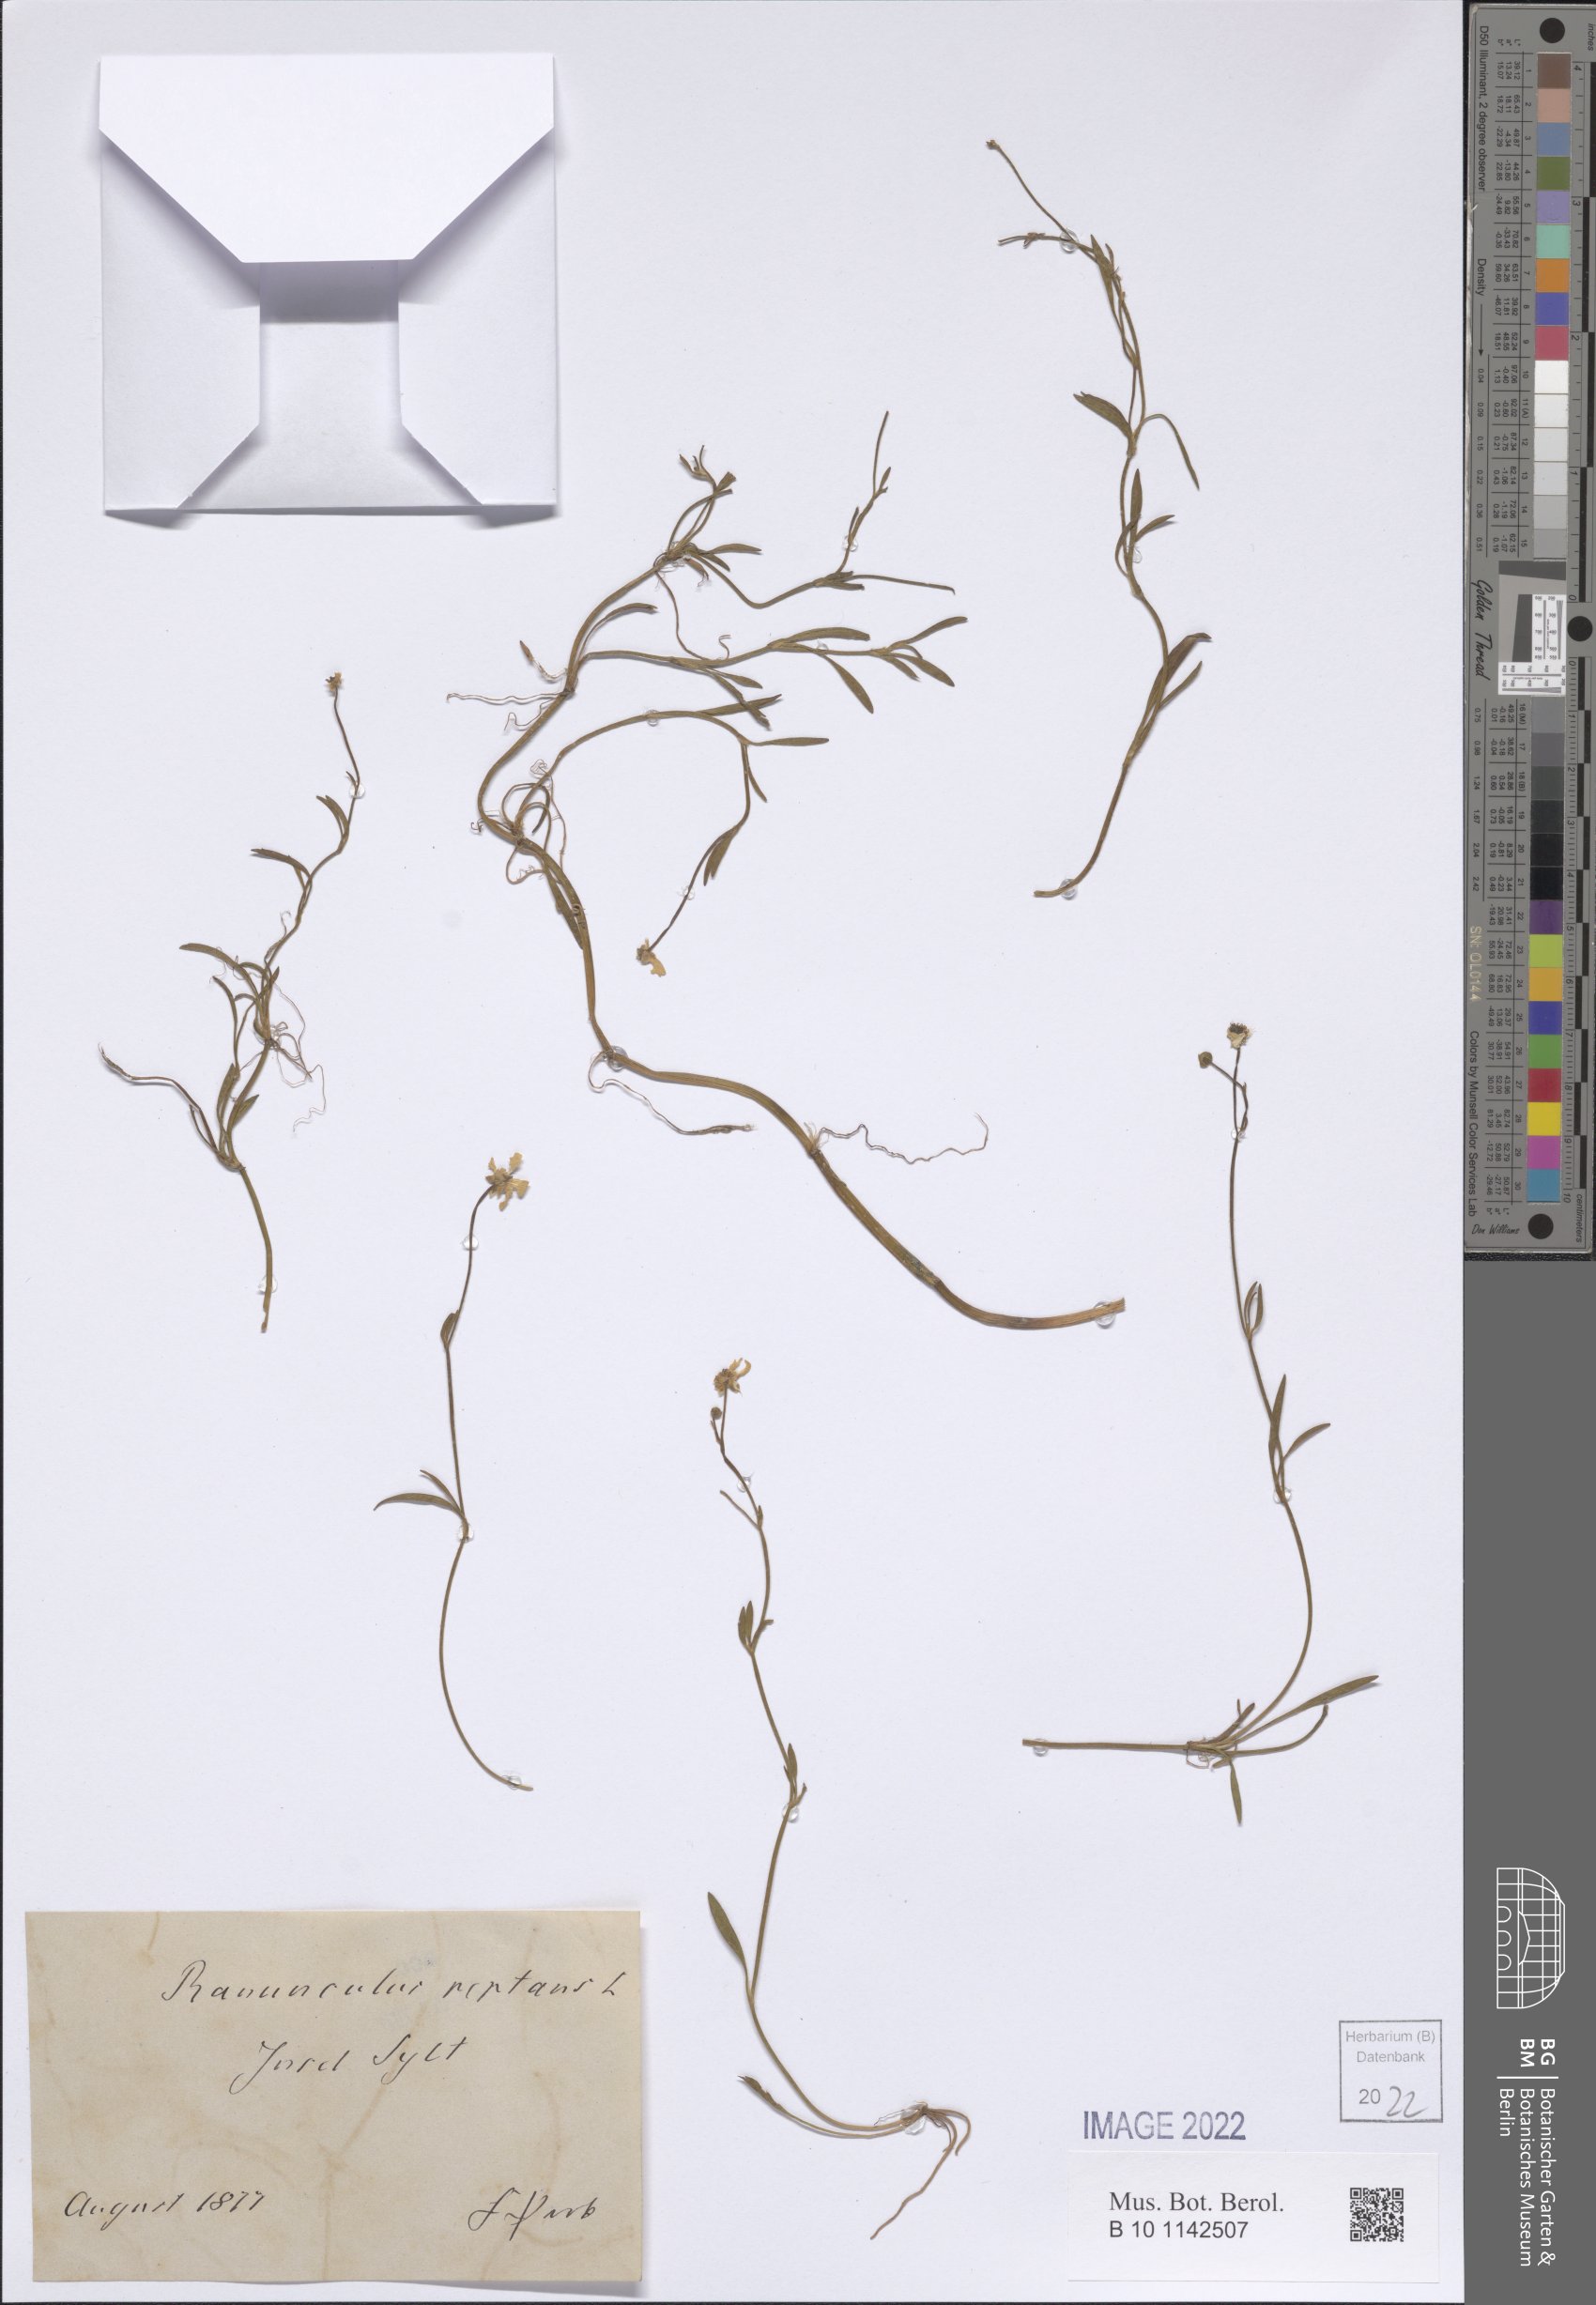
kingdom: Plantae
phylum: Tracheophyta
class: Magnoliopsida
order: Ranunculales
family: Ranunculaceae
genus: Ranunculus
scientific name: Ranunculus reptans
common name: Creeping spearwort
